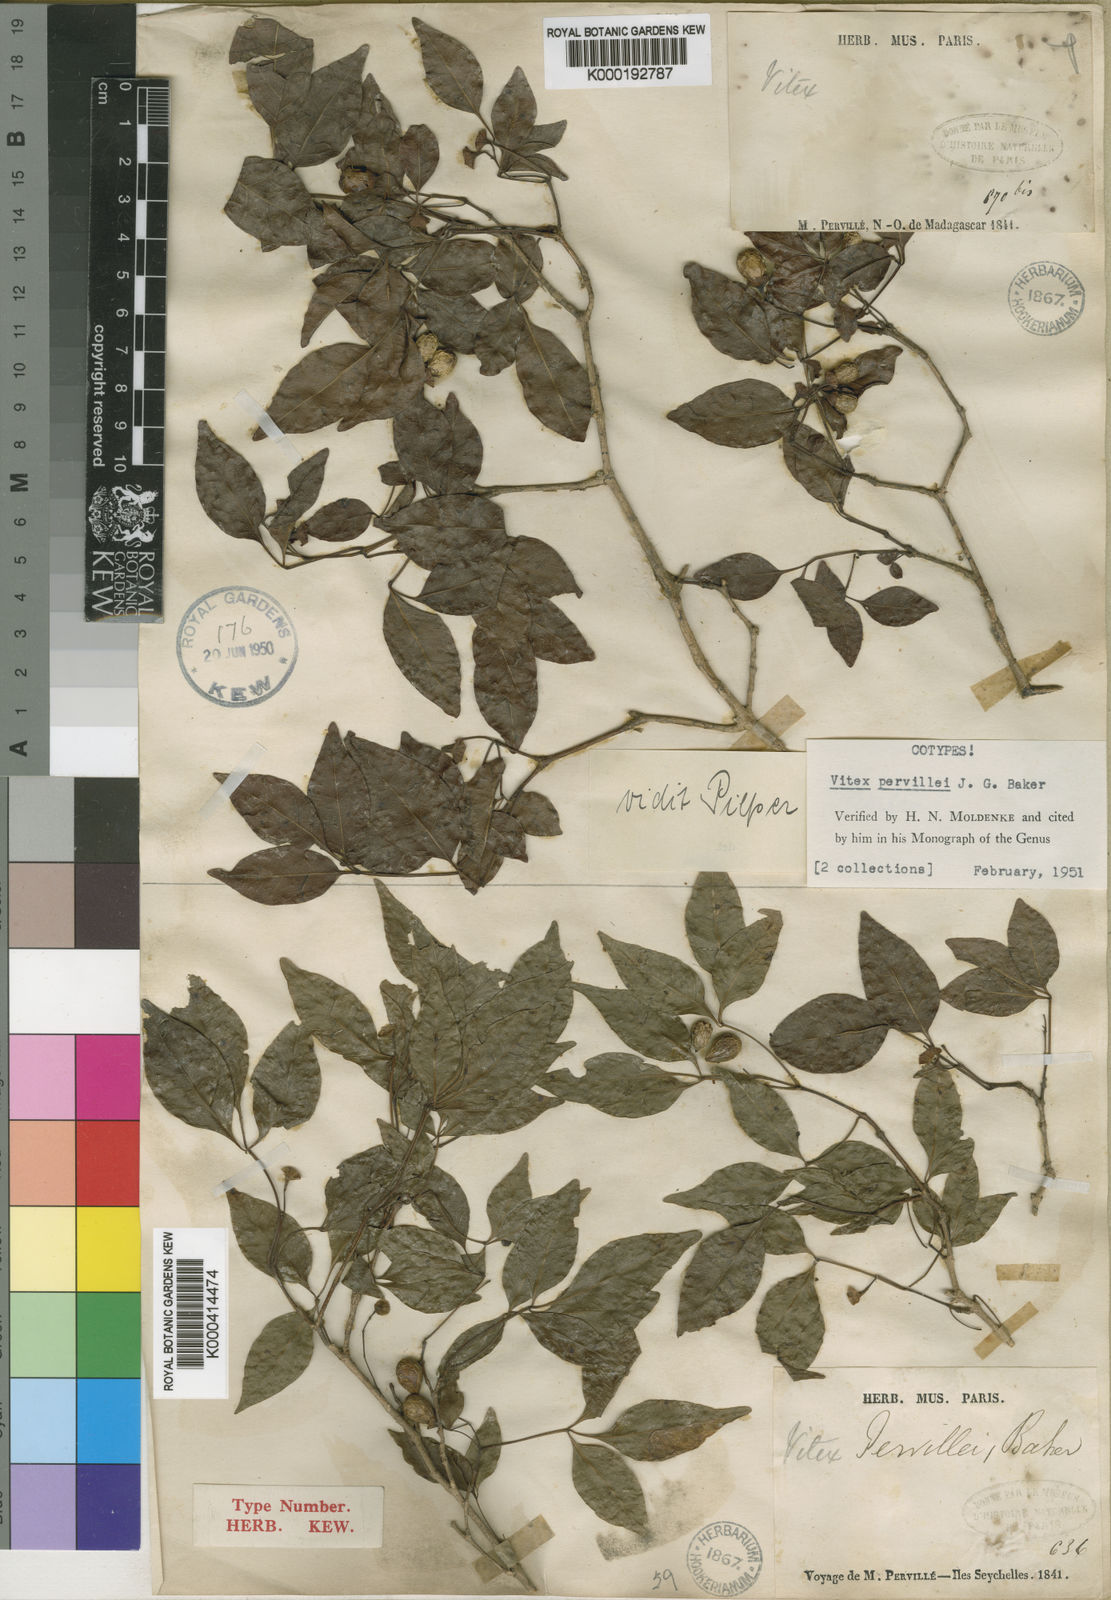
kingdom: Plantae
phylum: Tracheophyta
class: Magnoliopsida
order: Lamiales
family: Lamiaceae
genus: Vitex
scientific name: Vitex pervillei
